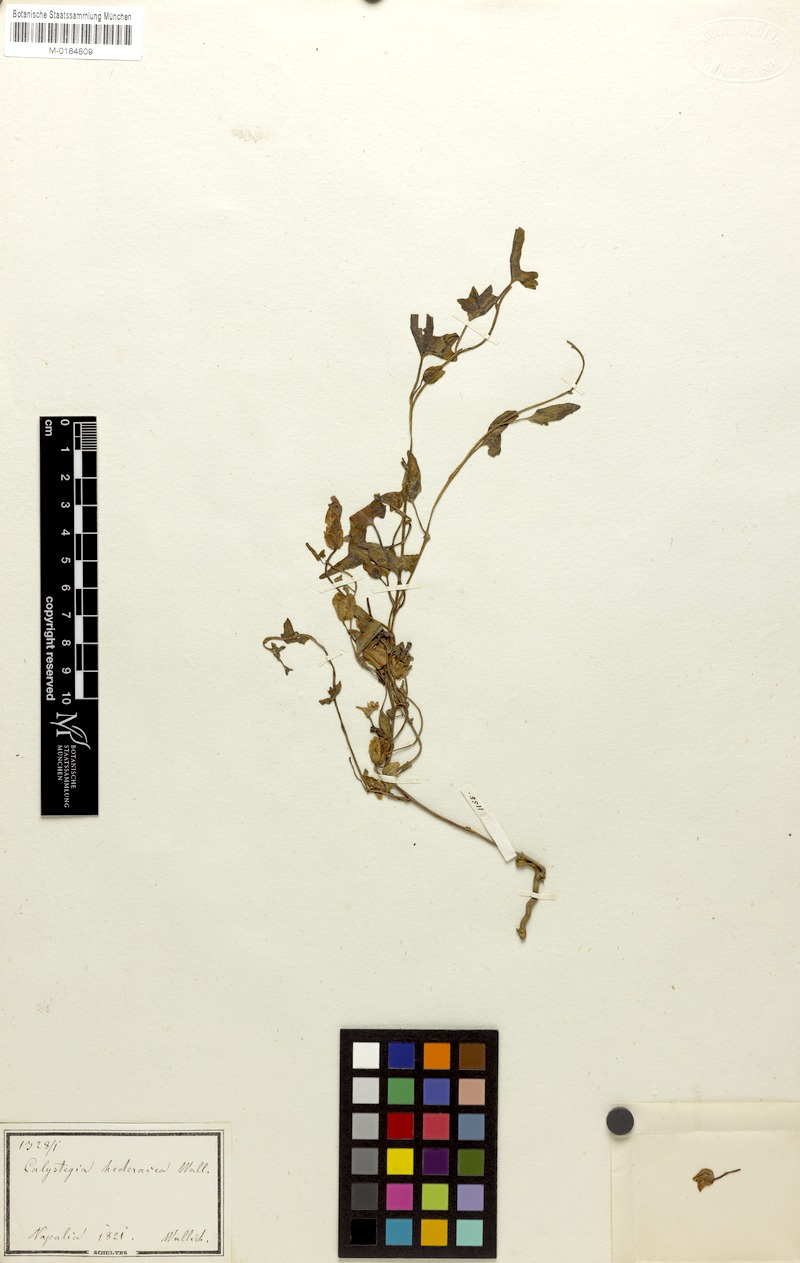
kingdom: Plantae
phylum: Tracheophyta
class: Magnoliopsida
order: Solanales
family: Convolvulaceae
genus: Calystegia
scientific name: Calystegia hederacea
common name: Japanese false bindweed
